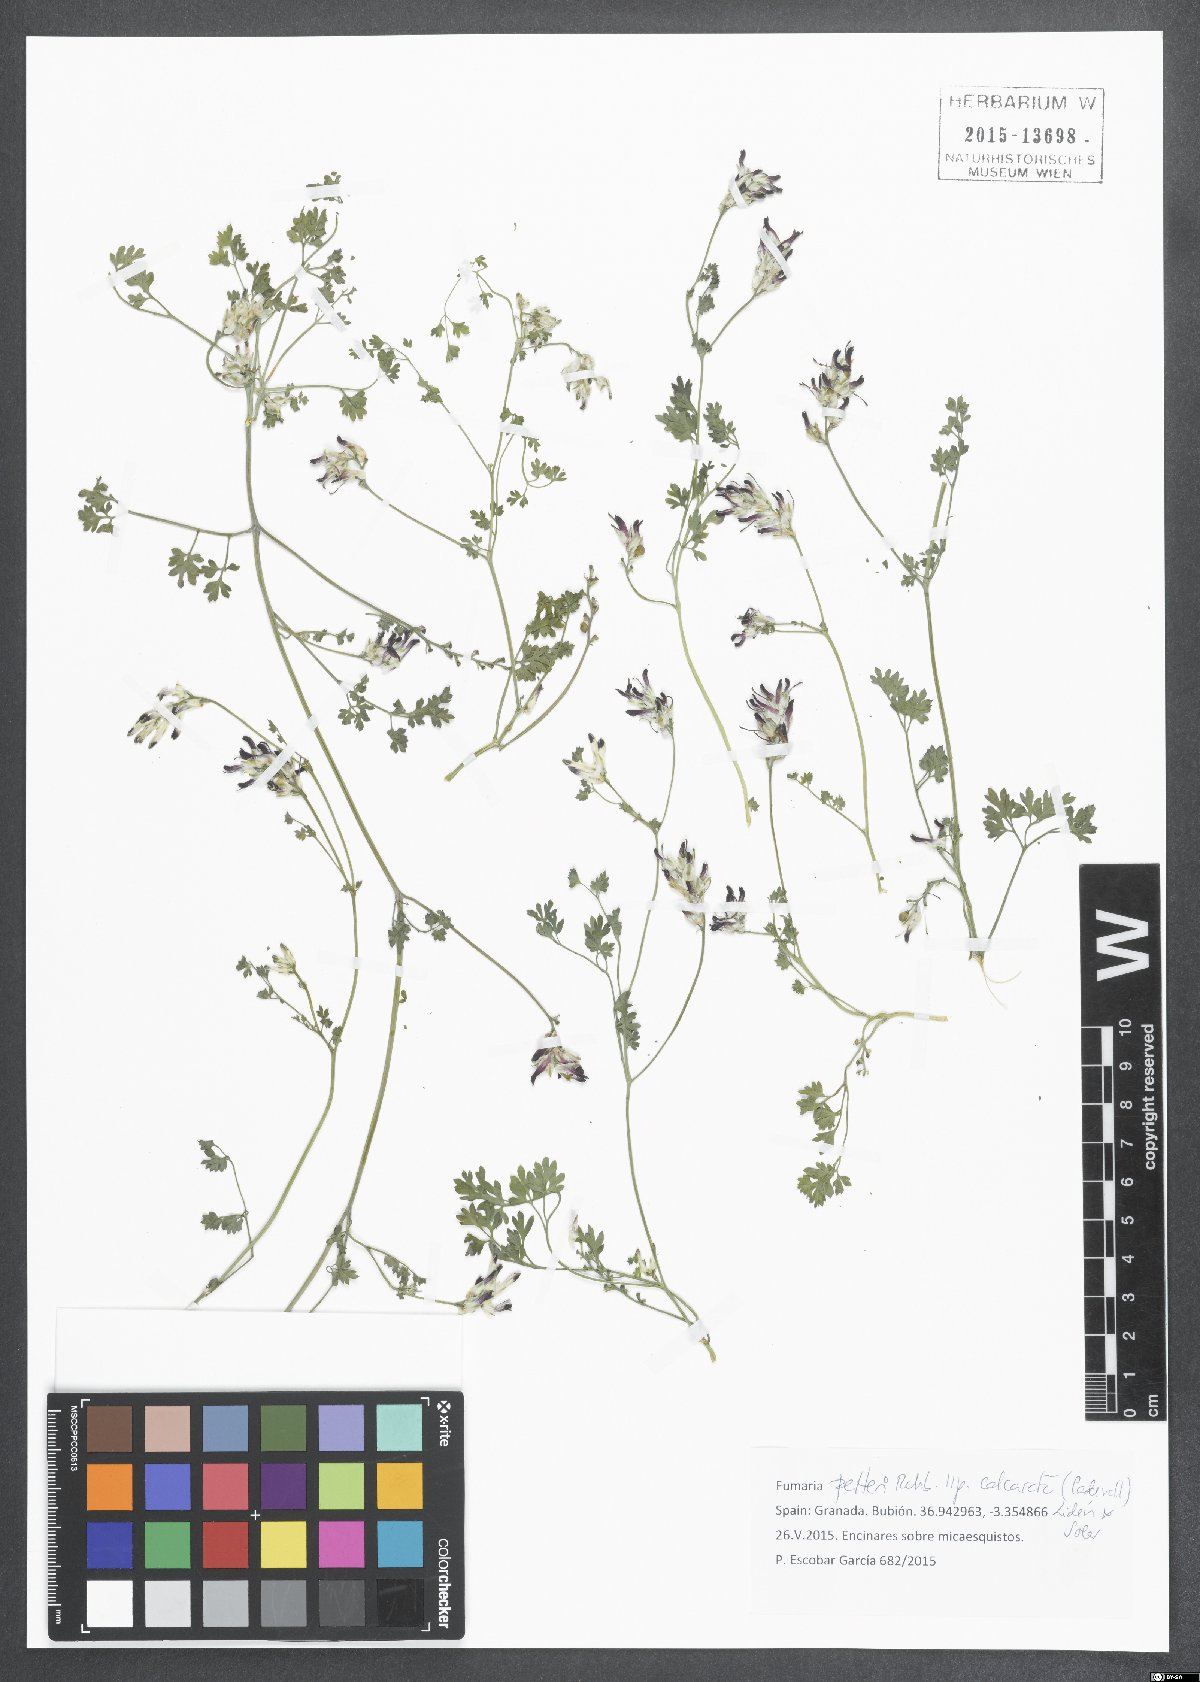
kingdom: Plantae
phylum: Tracheophyta
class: Magnoliopsida
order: Ranunculales
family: Papaveraceae
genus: Fumaria
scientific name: Fumaria petteri
